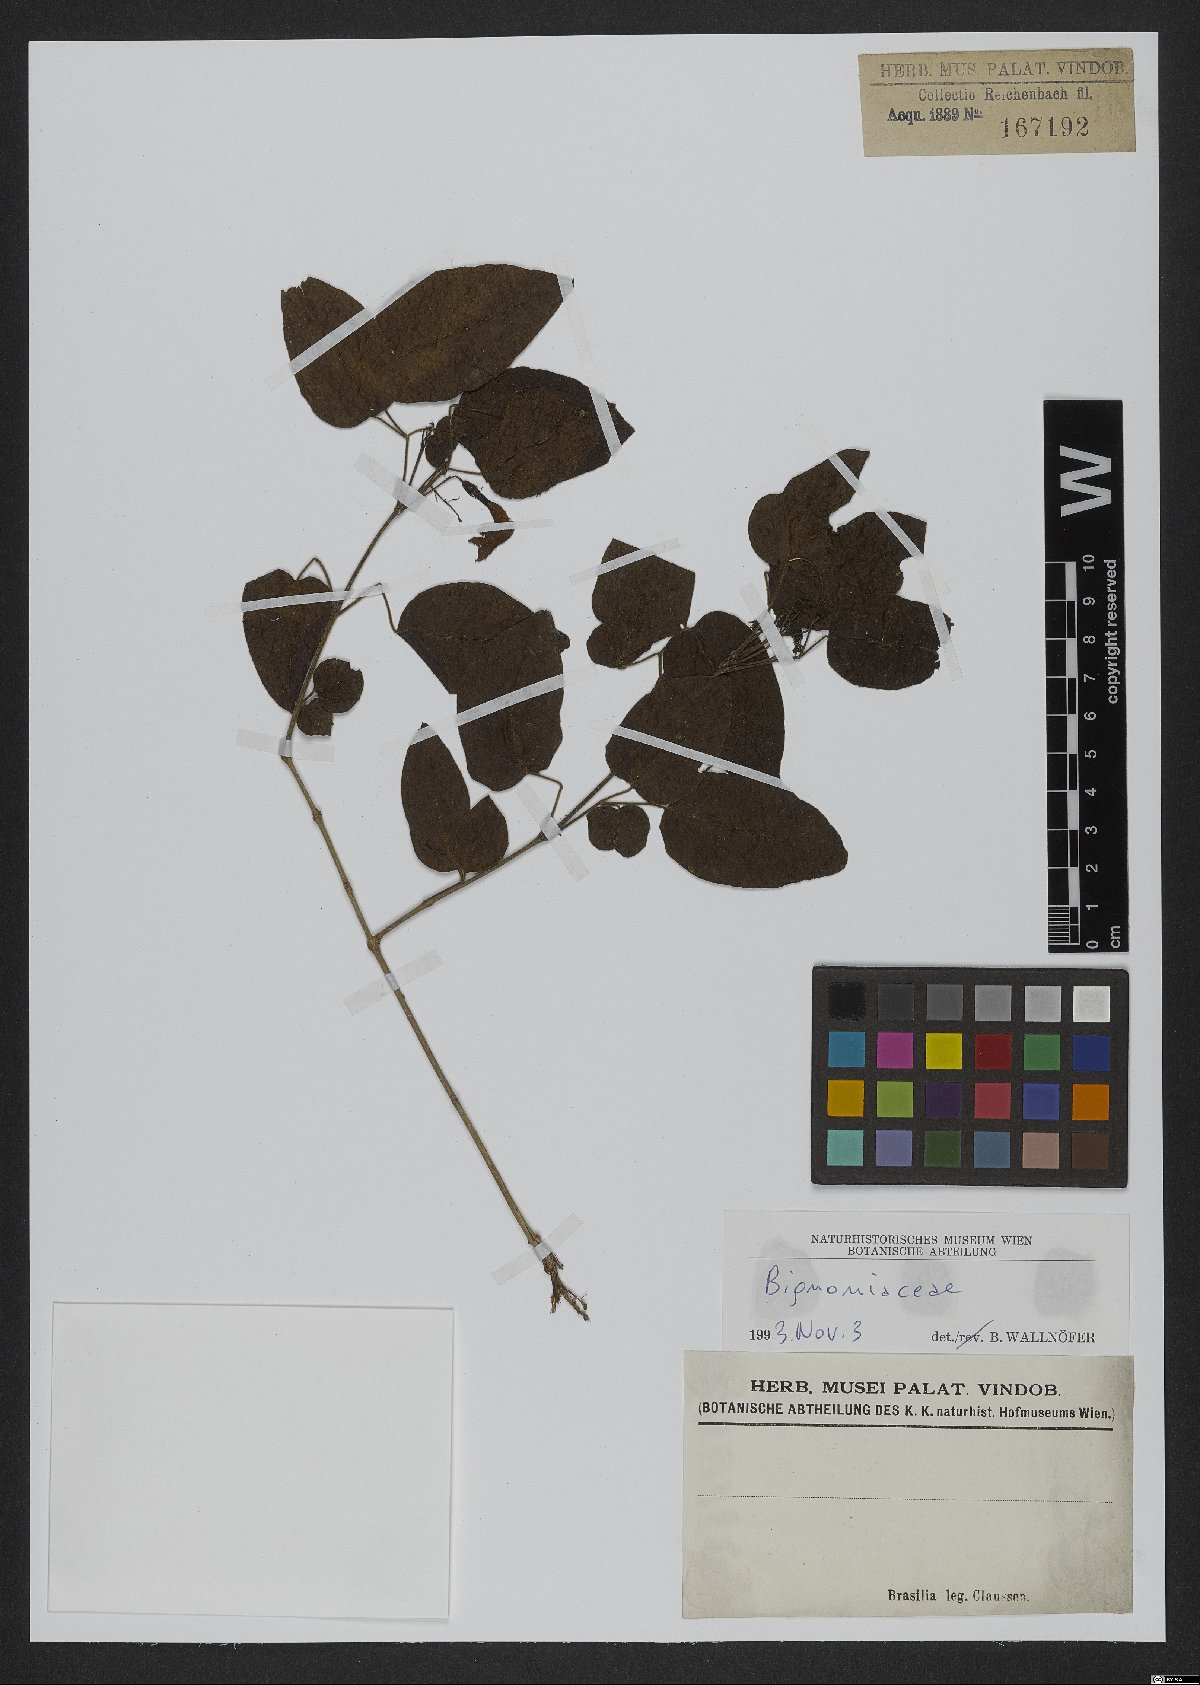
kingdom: Plantae
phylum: Tracheophyta
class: Magnoliopsida
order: Lamiales
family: Bignoniaceae
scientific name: Bignoniaceae
